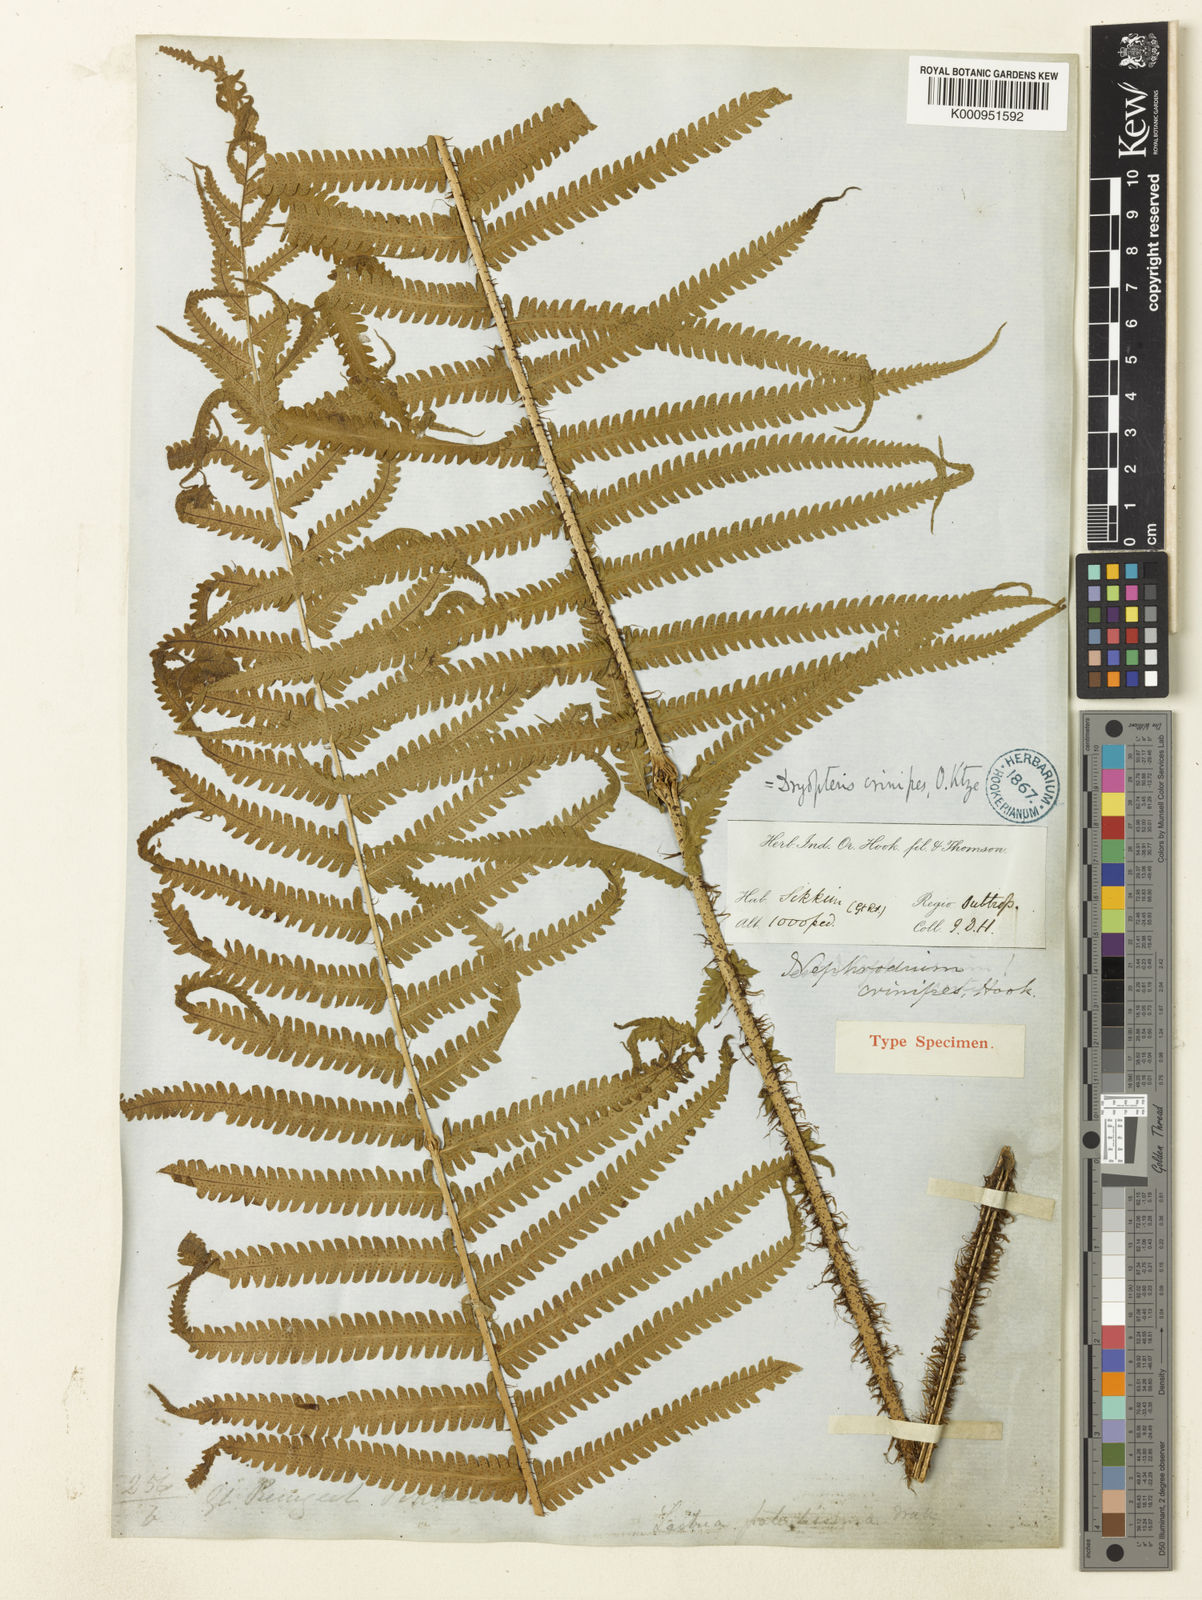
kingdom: Plantae
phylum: Tracheophyta
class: Polypodiopsida
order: Polypodiales
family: Thelypteridaceae
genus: Christella
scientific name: Christella crinipes
